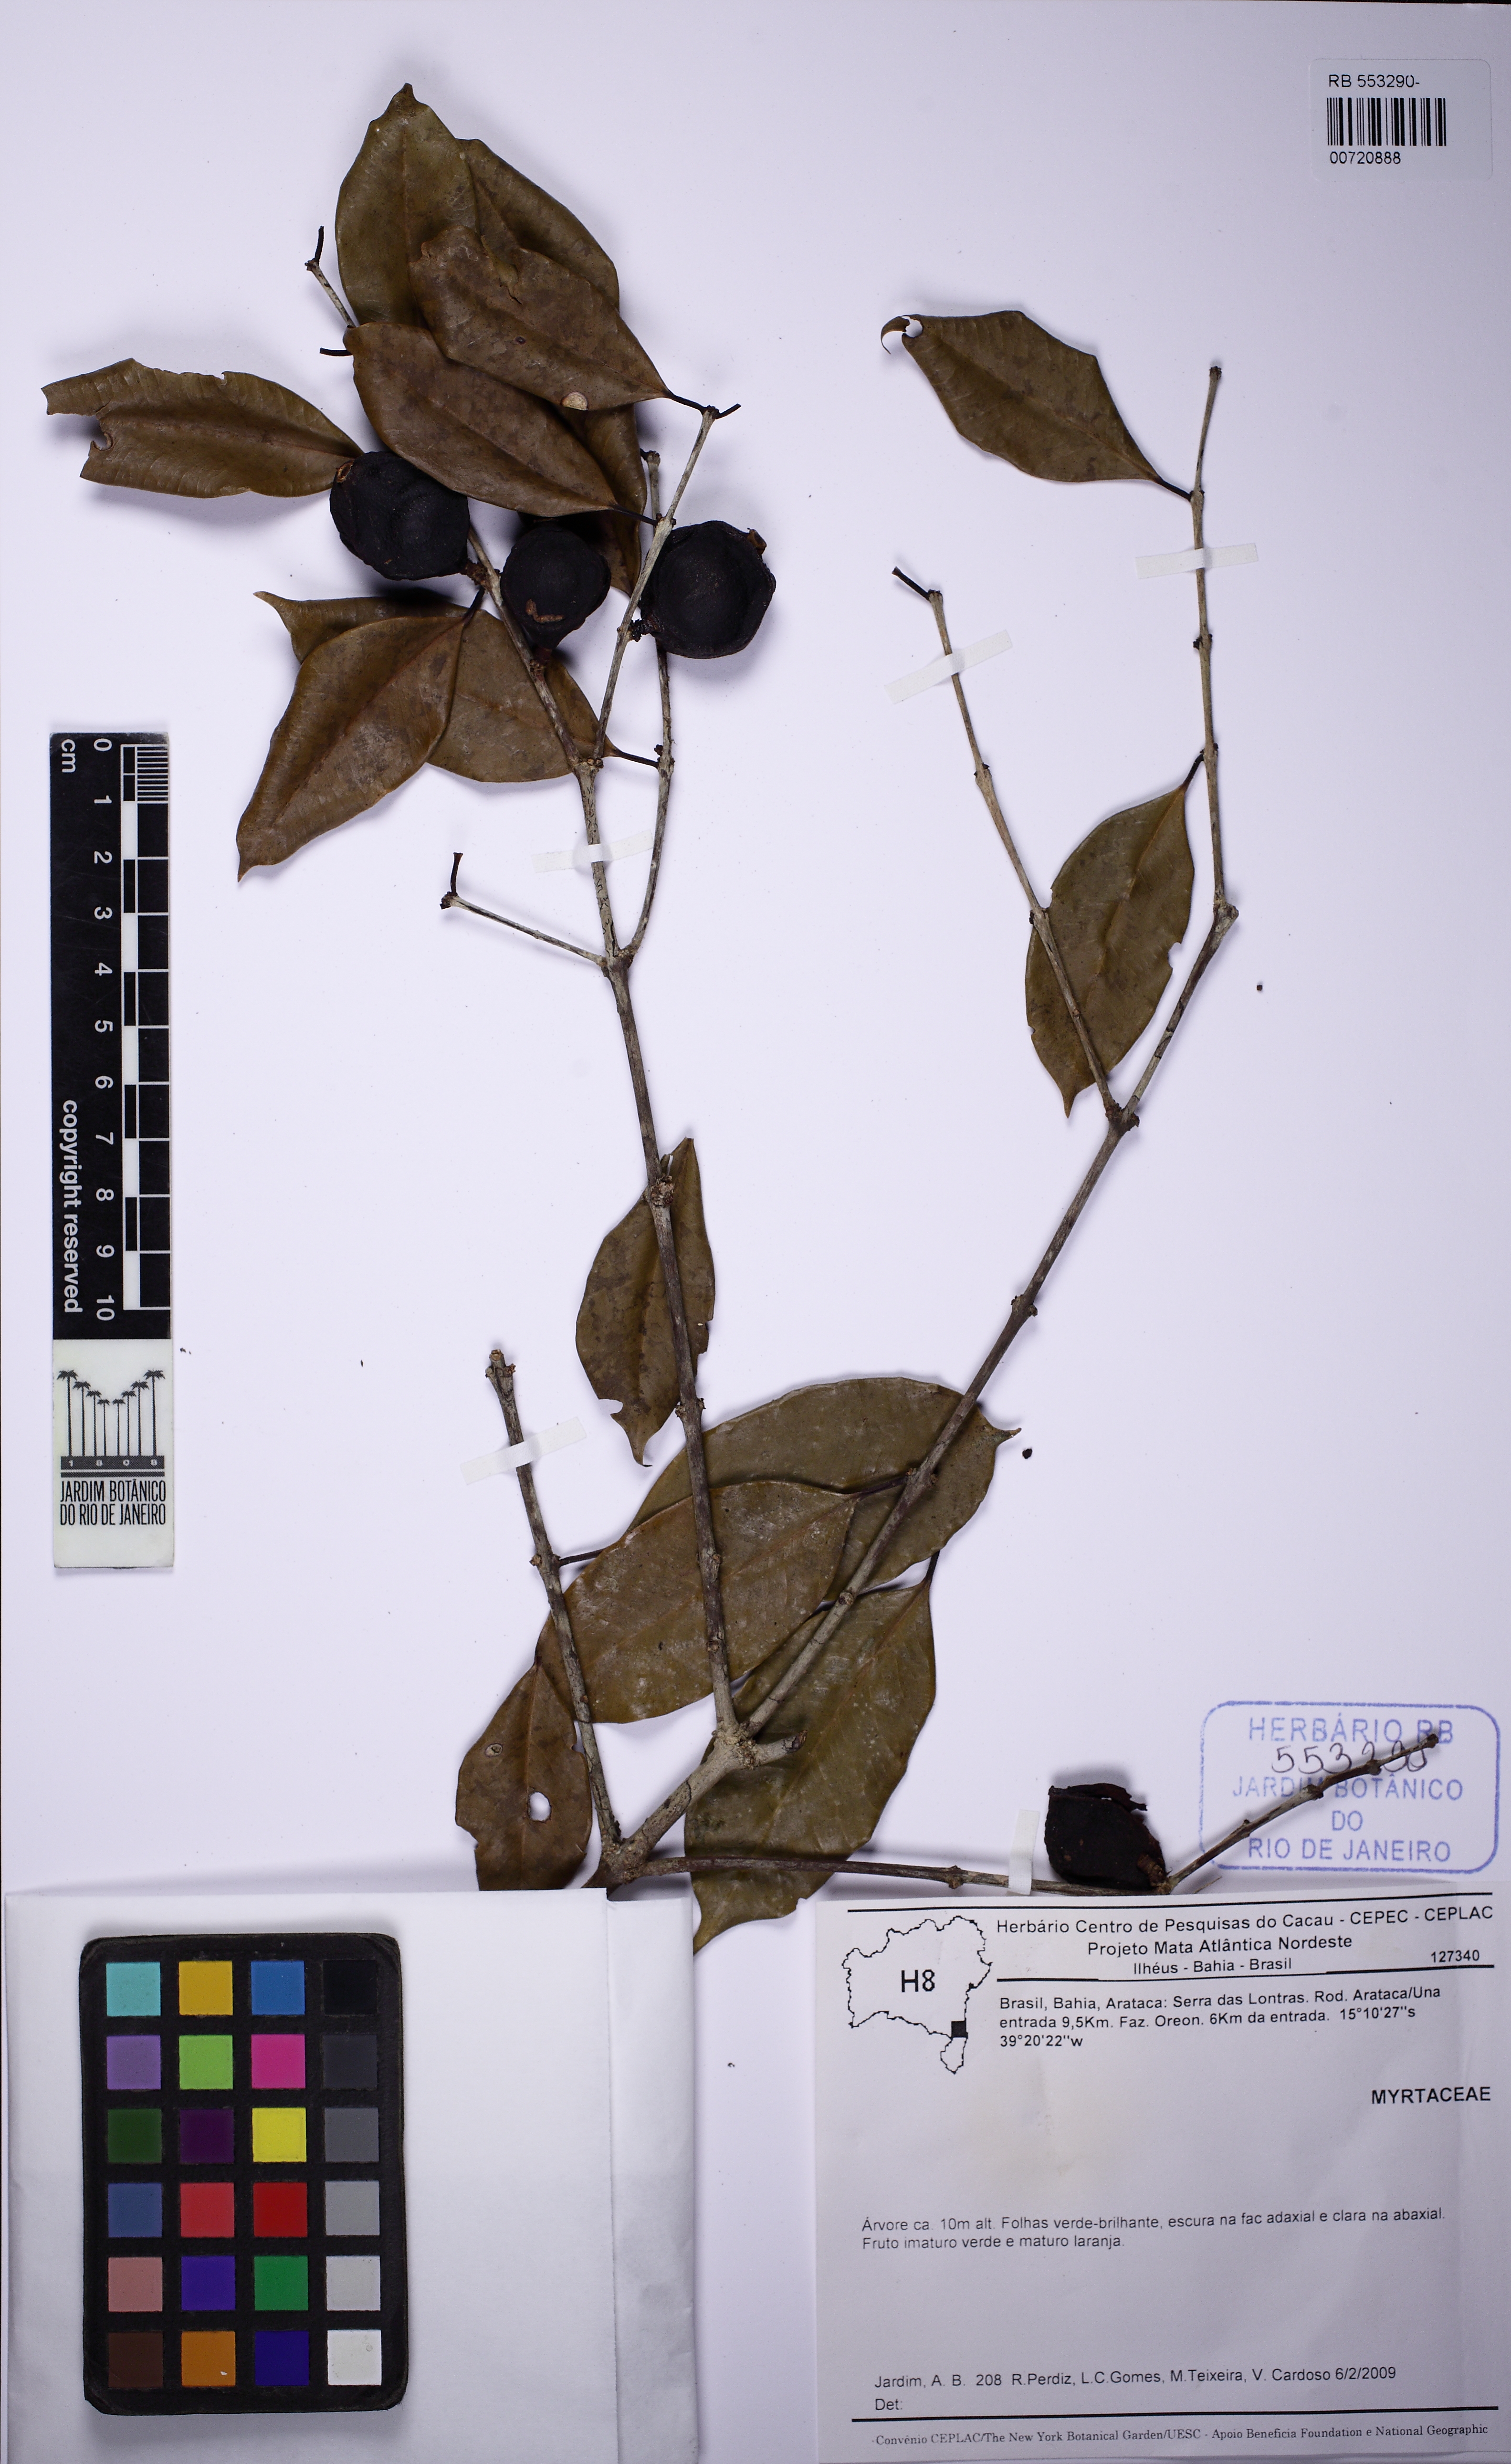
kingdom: Plantae
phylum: Tracheophyta
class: Magnoliopsida
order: Myrtales
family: Myrtaceae
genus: Plinia
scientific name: Plinia
